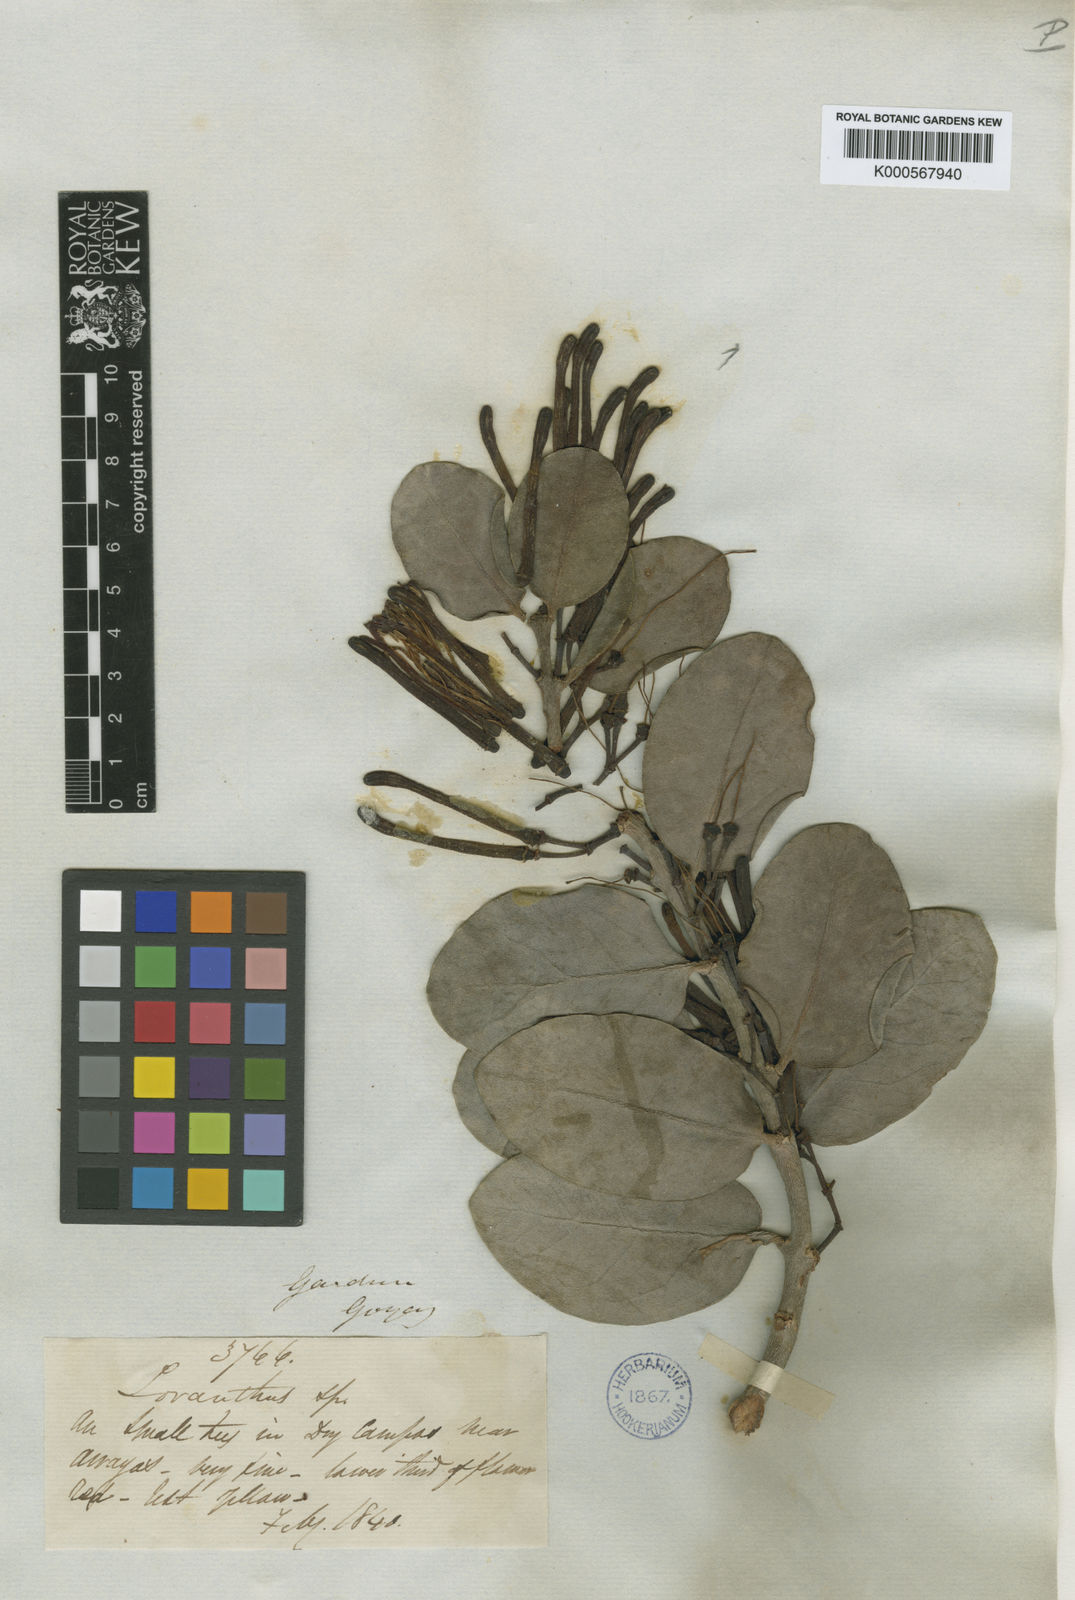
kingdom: Plantae
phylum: Tracheophyta
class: Magnoliopsida
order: Santalales
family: Loranthaceae
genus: Psittacanthus
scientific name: Psittacanthus biternatus
